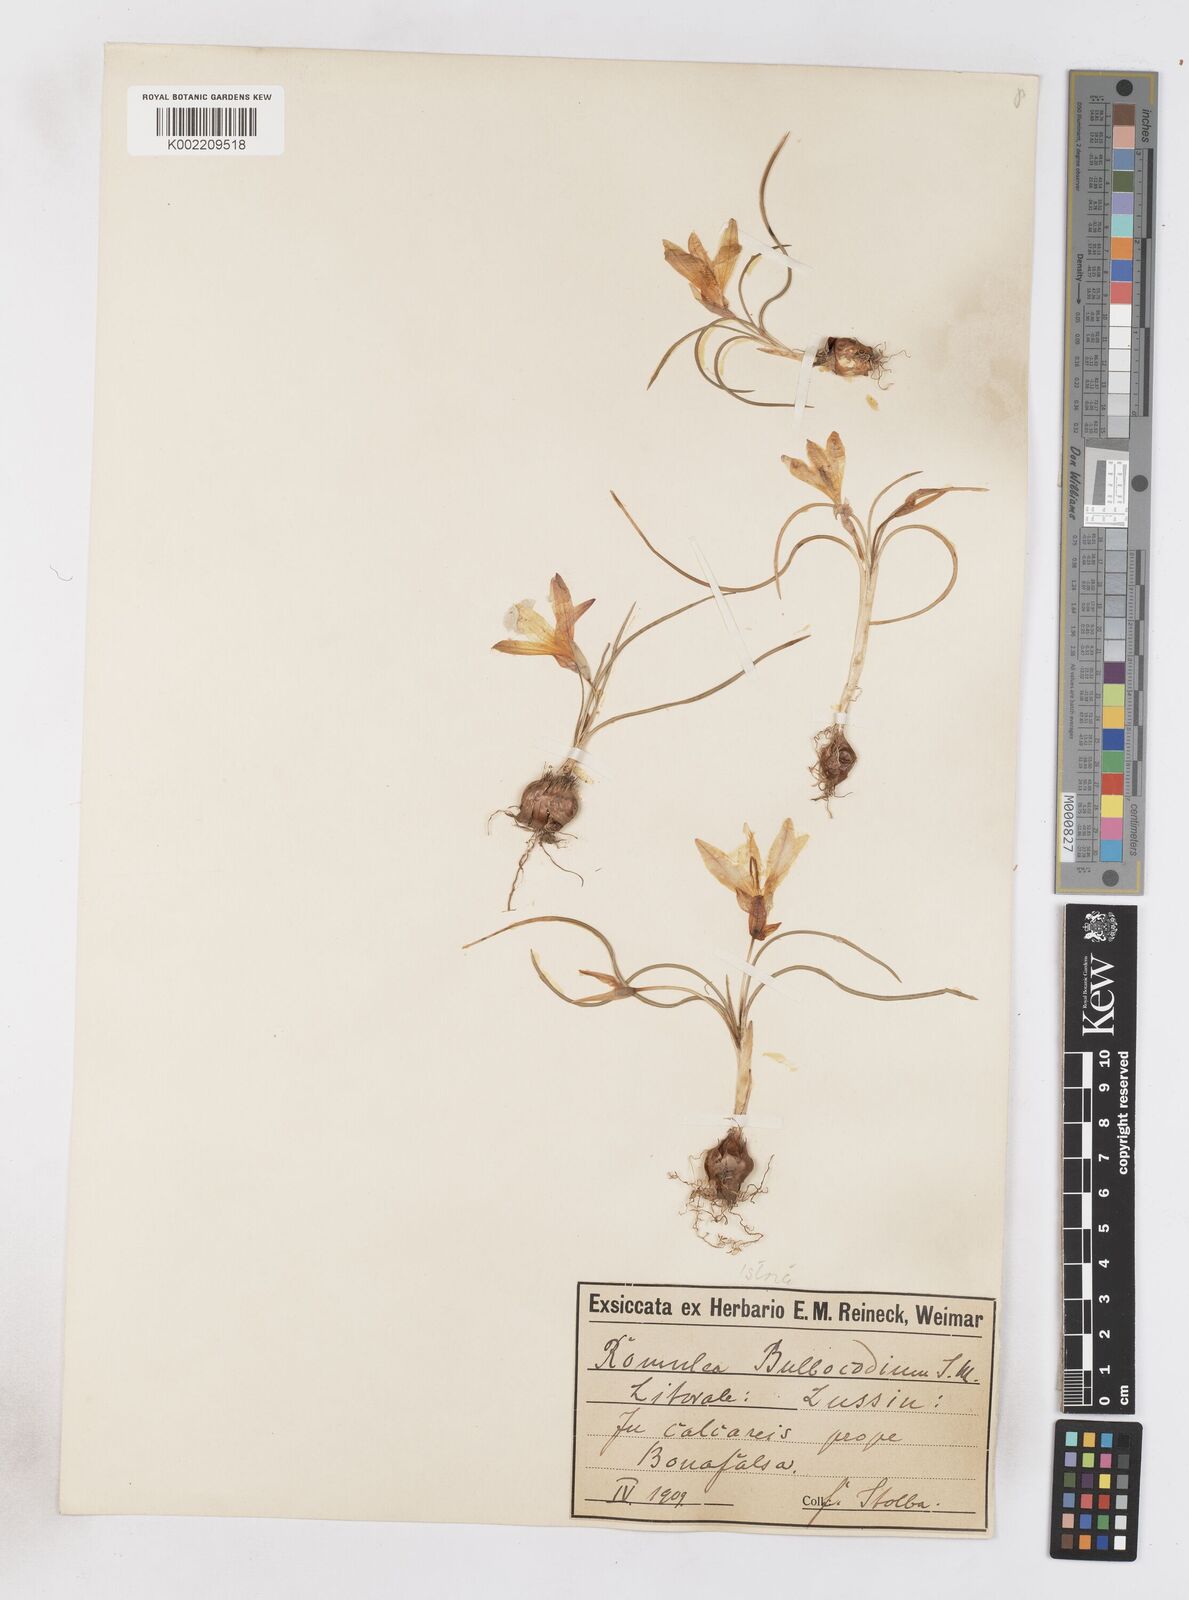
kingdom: Plantae
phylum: Tracheophyta
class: Liliopsida
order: Asparagales
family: Iridaceae
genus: Romulea
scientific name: Romulea bulbocodium
